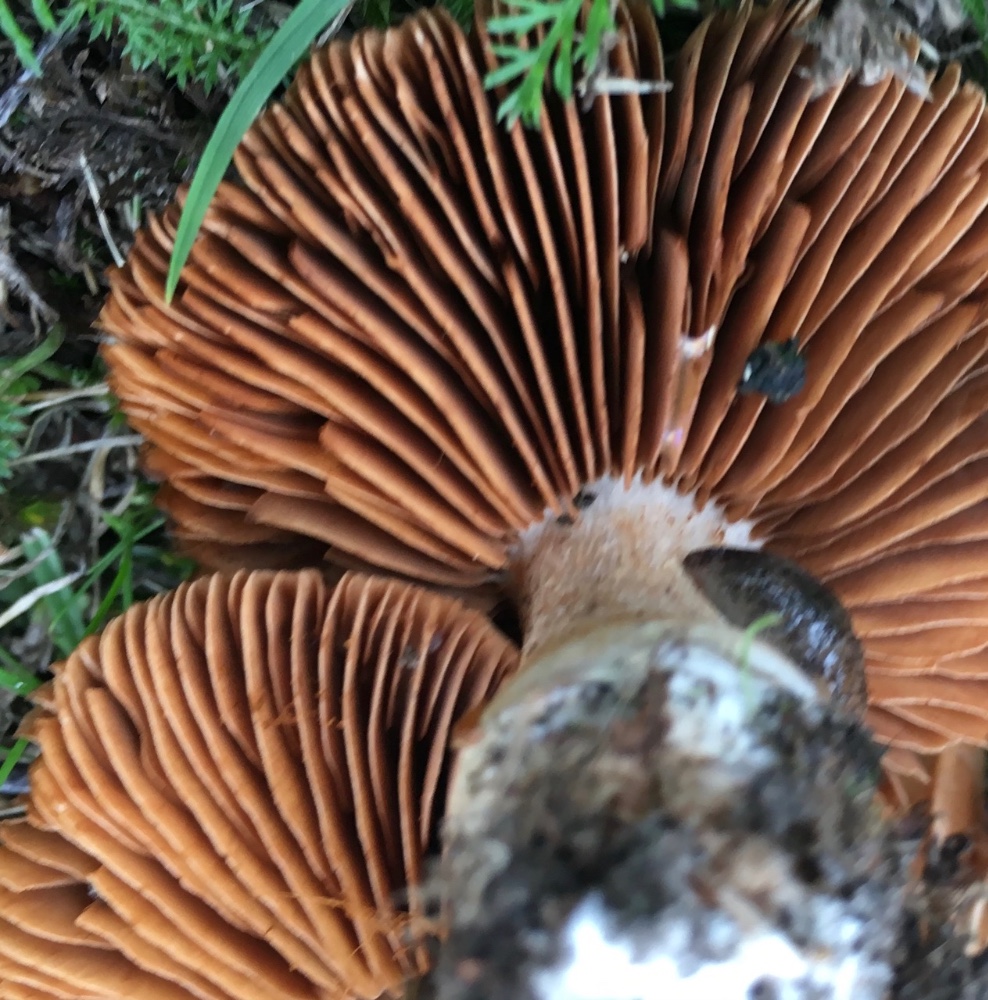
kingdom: Fungi
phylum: Basidiomycota
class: Agaricomycetes
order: Agaricales
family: Cortinariaceae
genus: Cortinarius
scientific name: Cortinarius
